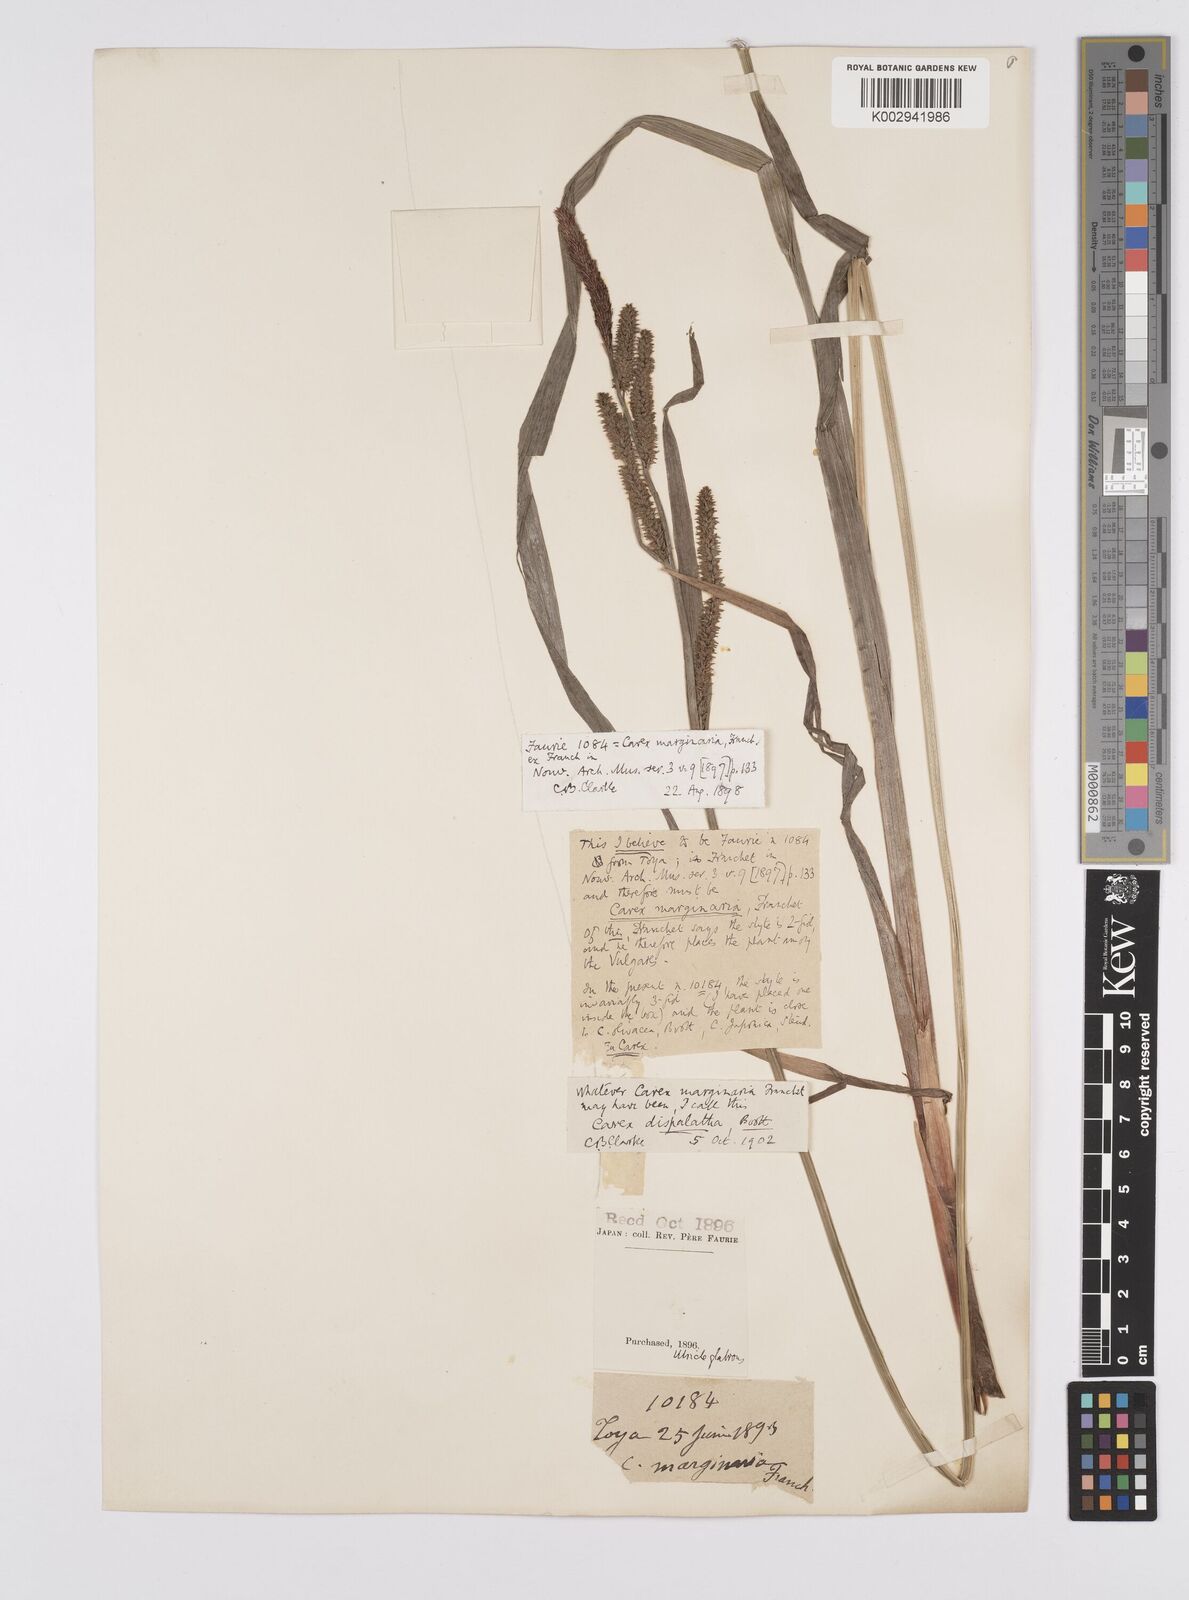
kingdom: Plantae
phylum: Tracheophyta
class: Liliopsida
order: Poales
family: Cyperaceae
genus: Carex
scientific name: Carex dispalata
